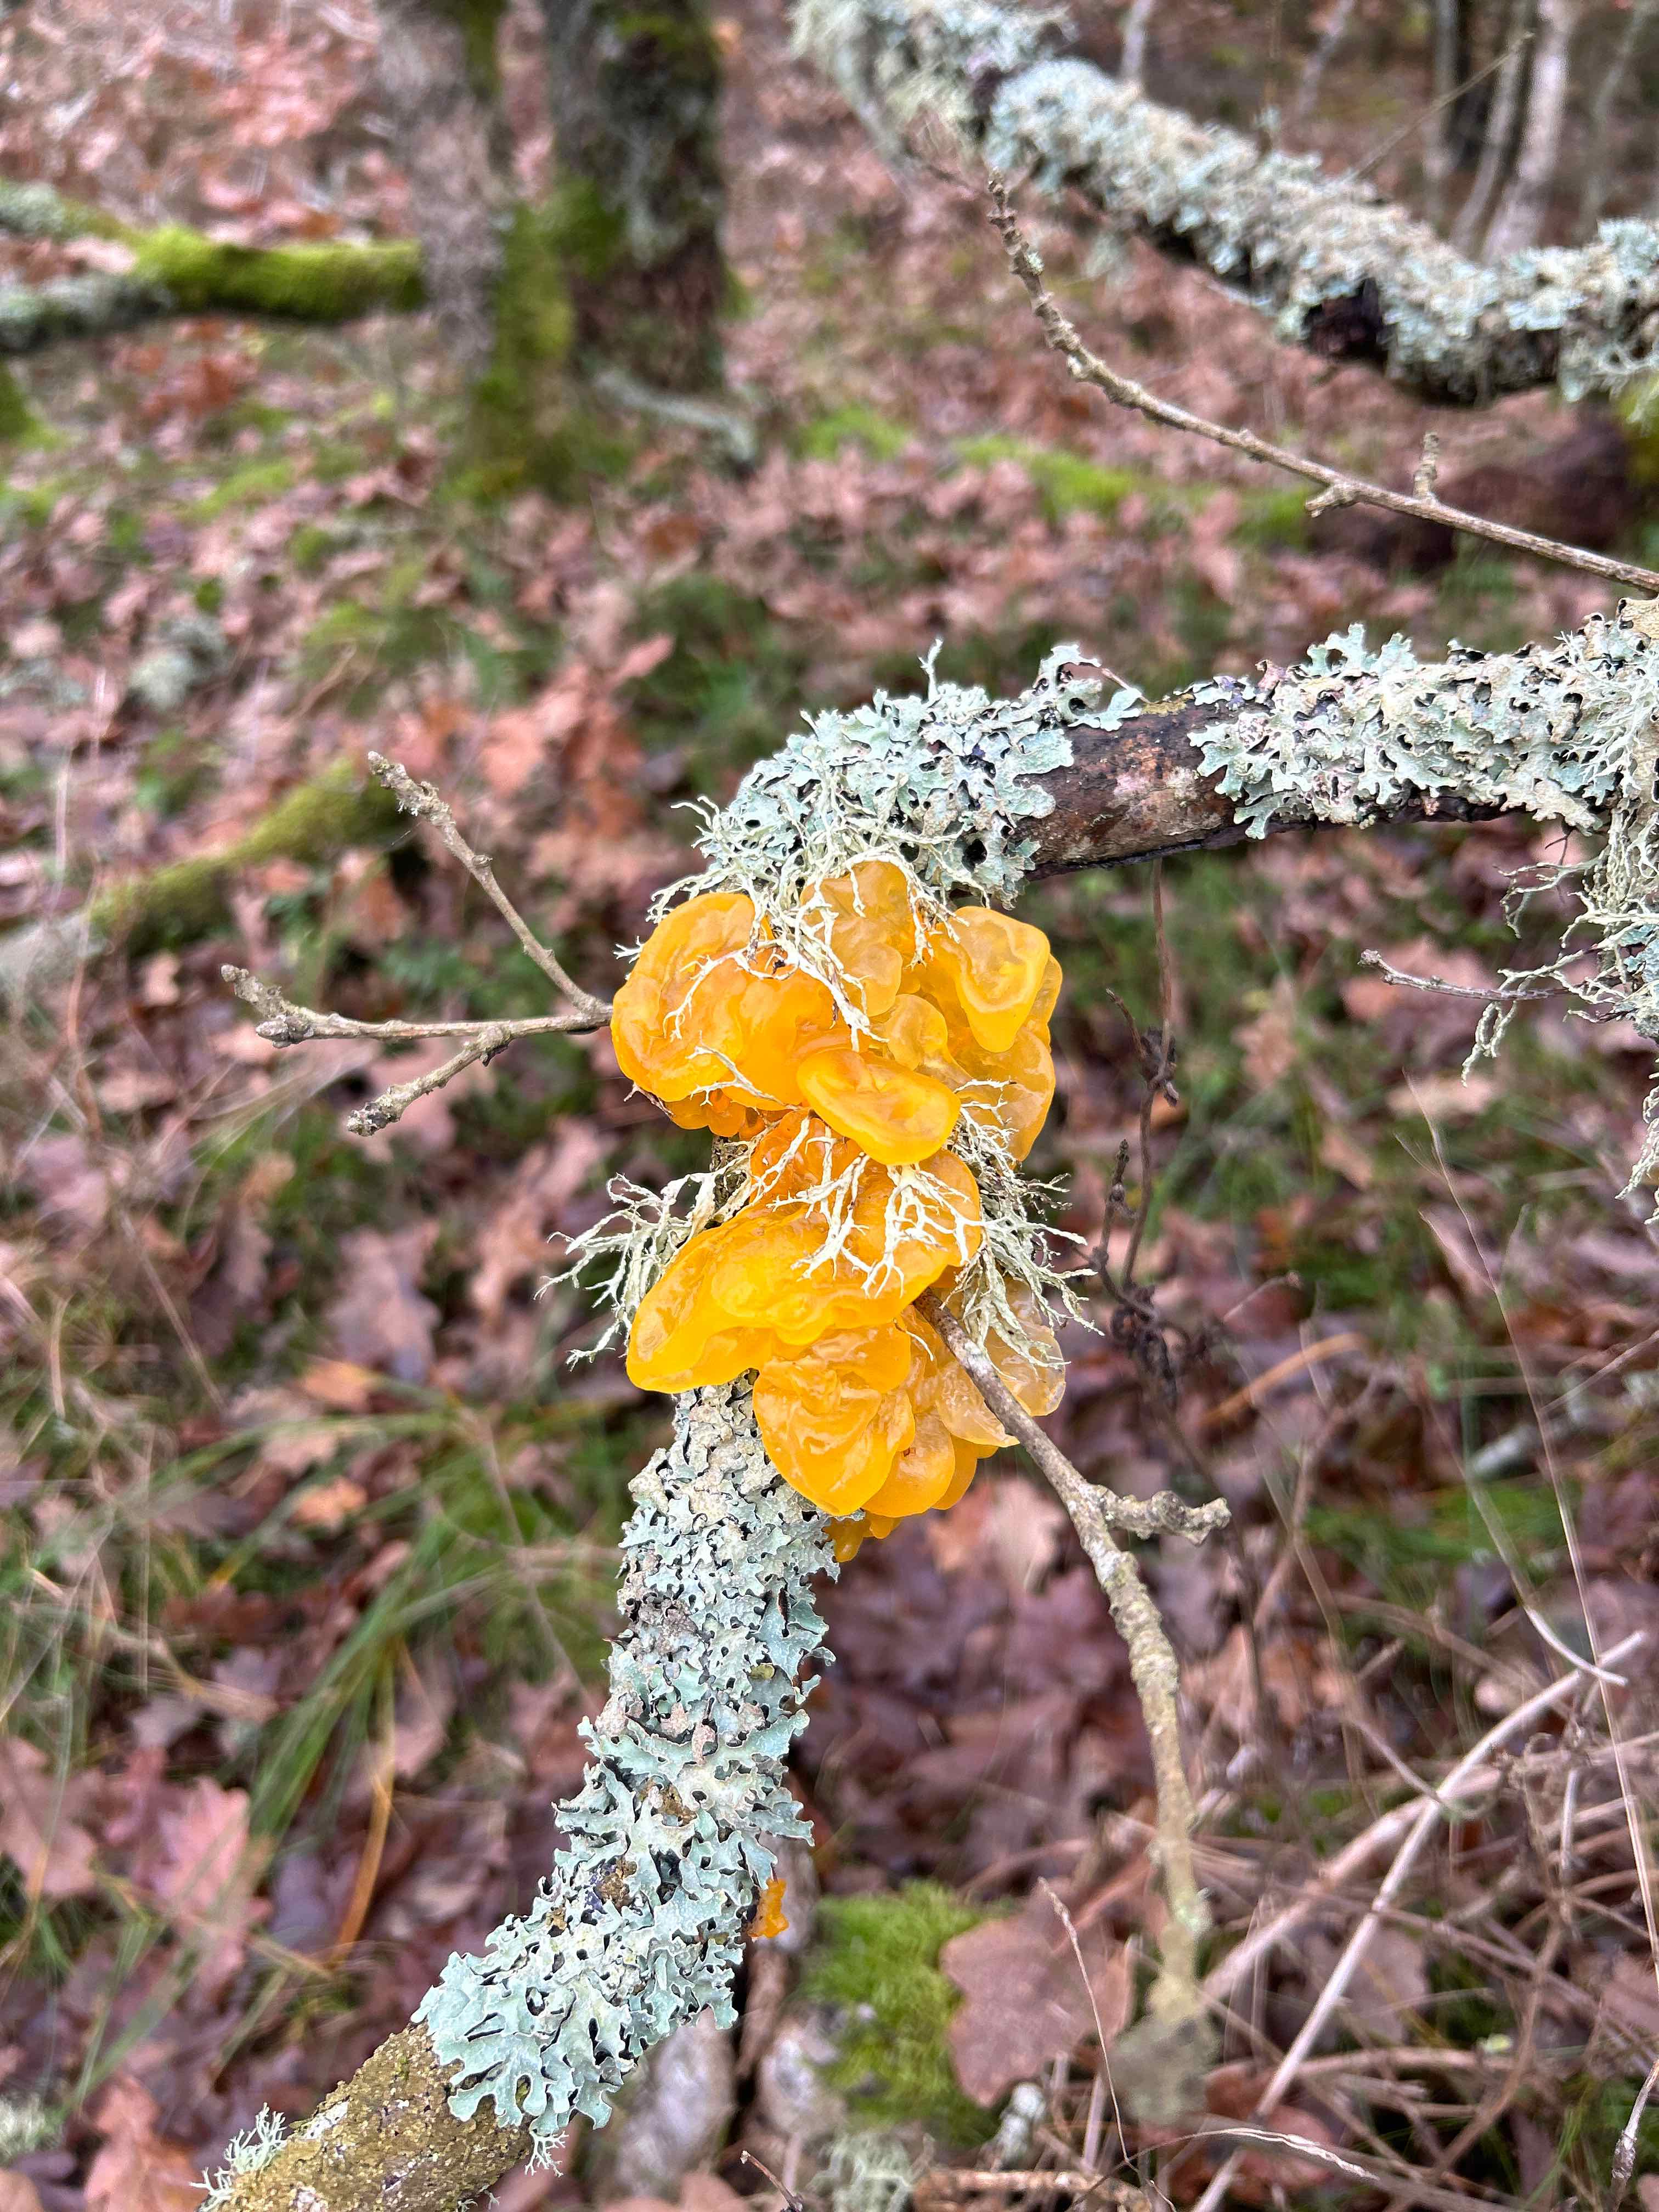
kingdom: Fungi
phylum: Basidiomycota
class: Tremellomycetes
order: Tremellales
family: Tremellaceae
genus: Tremella
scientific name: Tremella mesenterica
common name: gul bævresvamp
